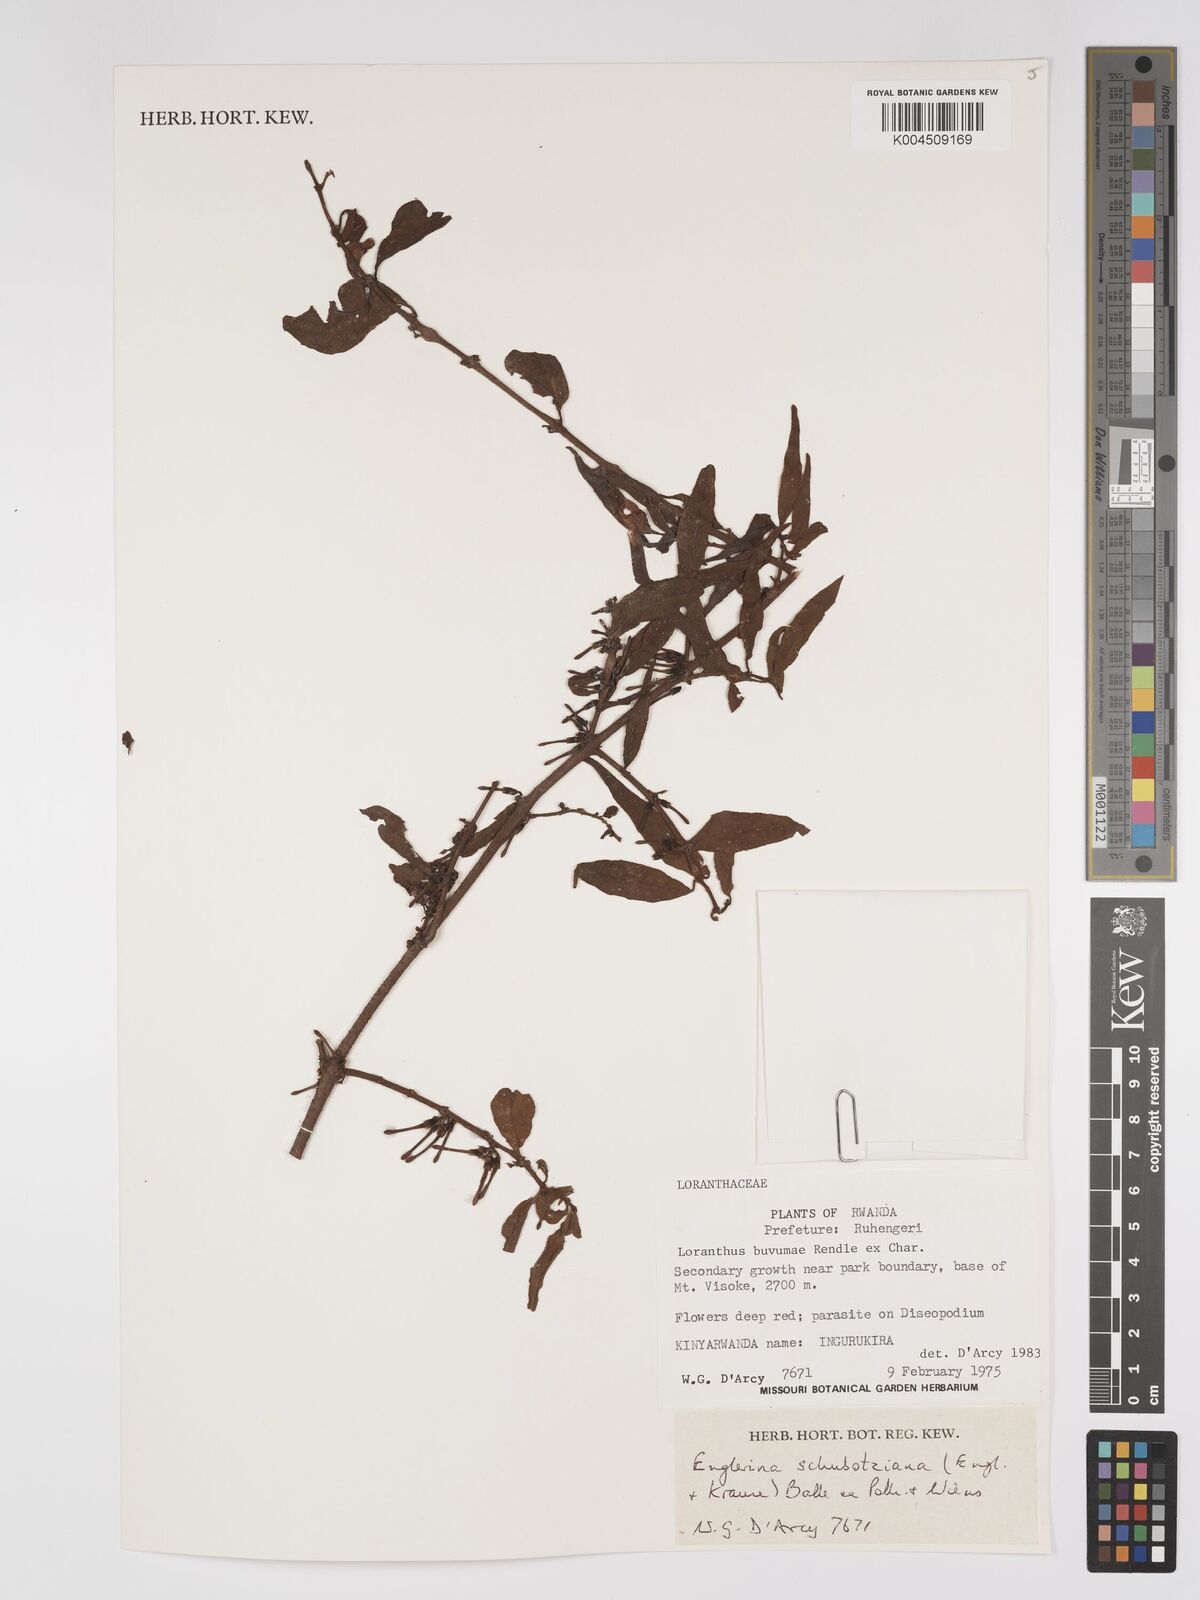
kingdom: Plantae
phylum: Tracheophyta
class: Magnoliopsida
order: Santalales
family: Loranthaceae
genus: Englerina
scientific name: Englerina schubotziana
